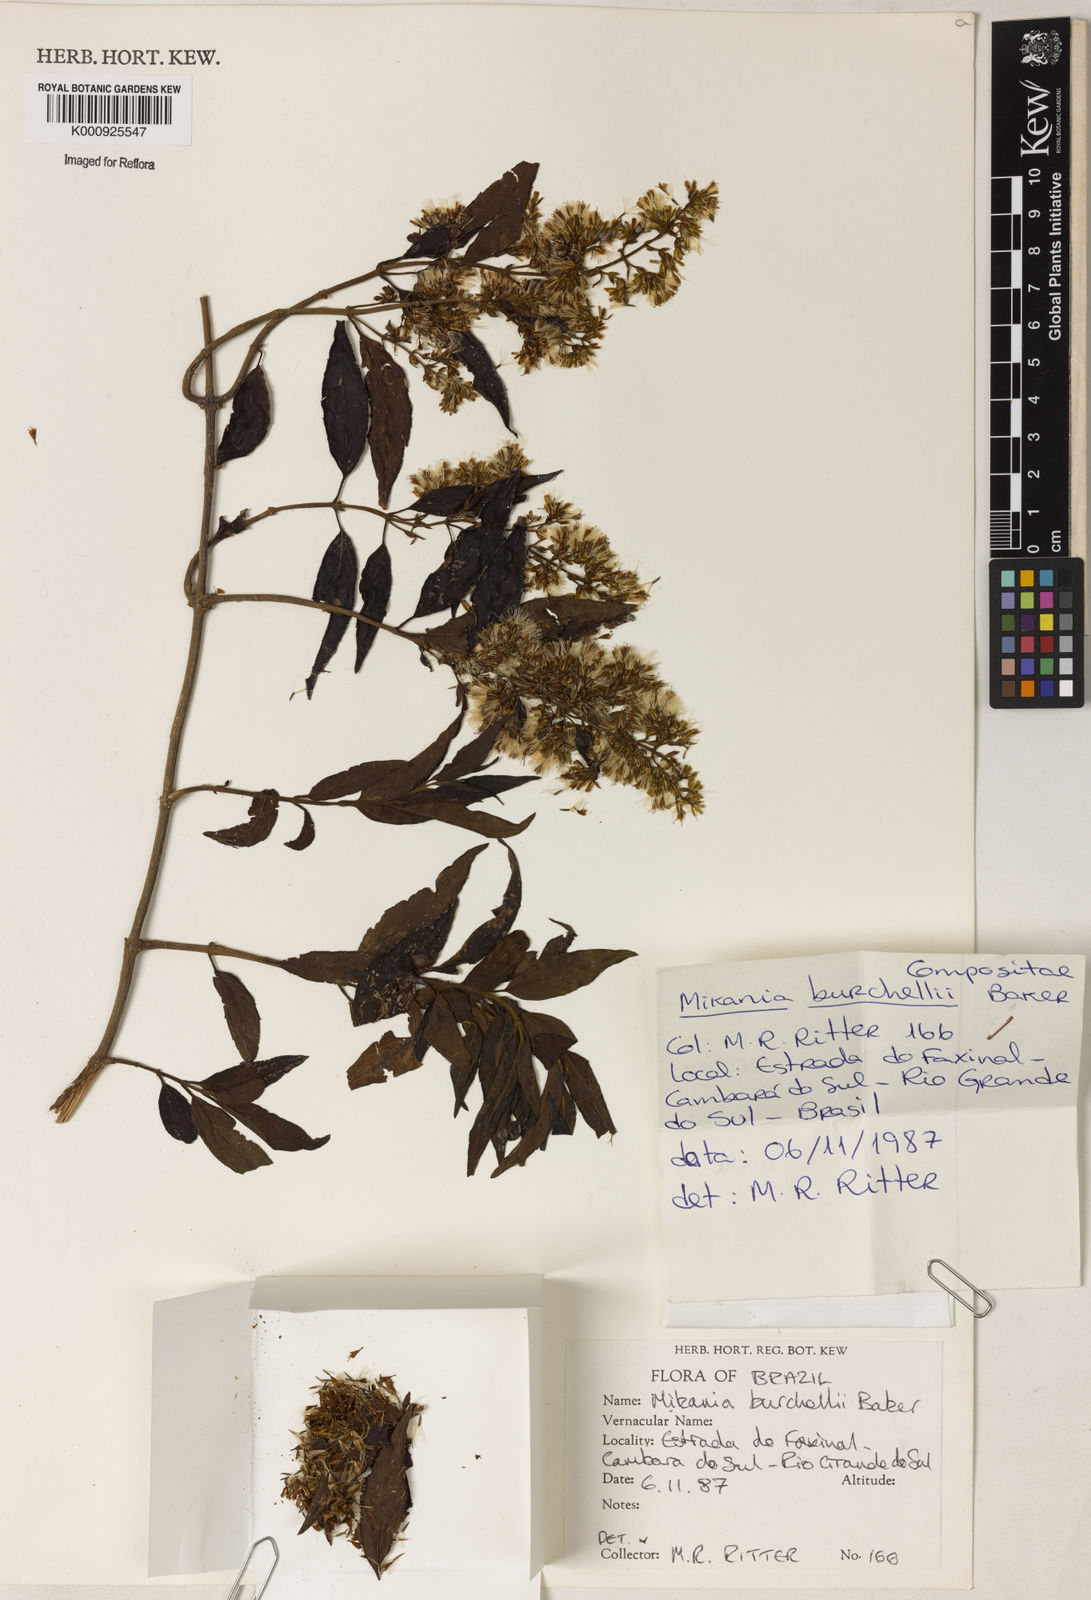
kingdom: Plantae
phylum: Tracheophyta
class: Magnoliopsida
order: Asterales
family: Asteraceae
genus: Mikania
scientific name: Mikania burchellii
